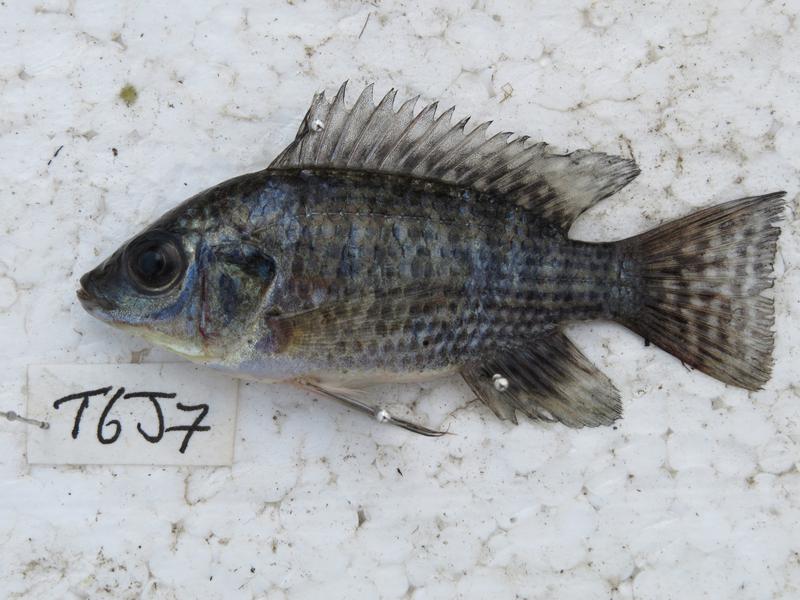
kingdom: Animalia
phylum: Chordata
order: Perciformes
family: Cichlidae
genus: Oreochromis
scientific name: Oreochromis leucostictus
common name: Blue spotted tilapia
